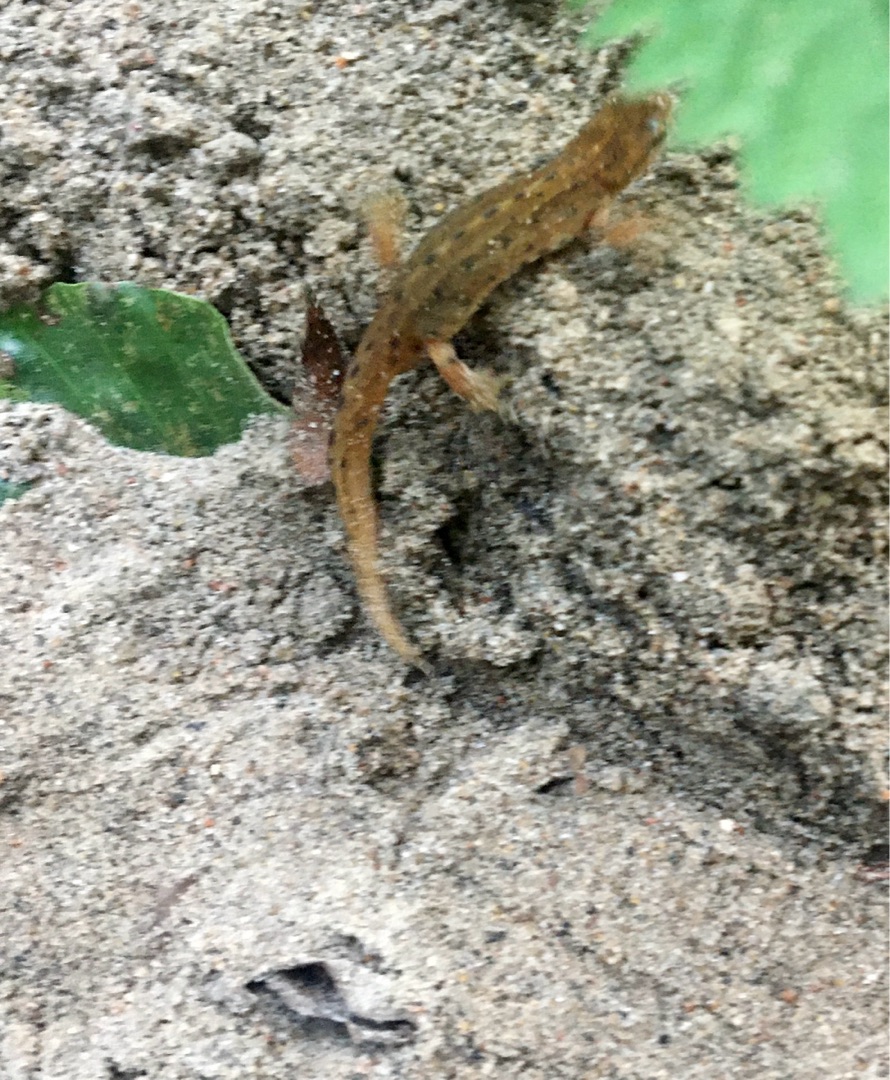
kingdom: Animalia
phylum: Chordata
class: Amphibia
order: Caudata
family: Salamandridae
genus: Lissotriton
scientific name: Lissotriton vulgaris
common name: Lille vandsalamander
